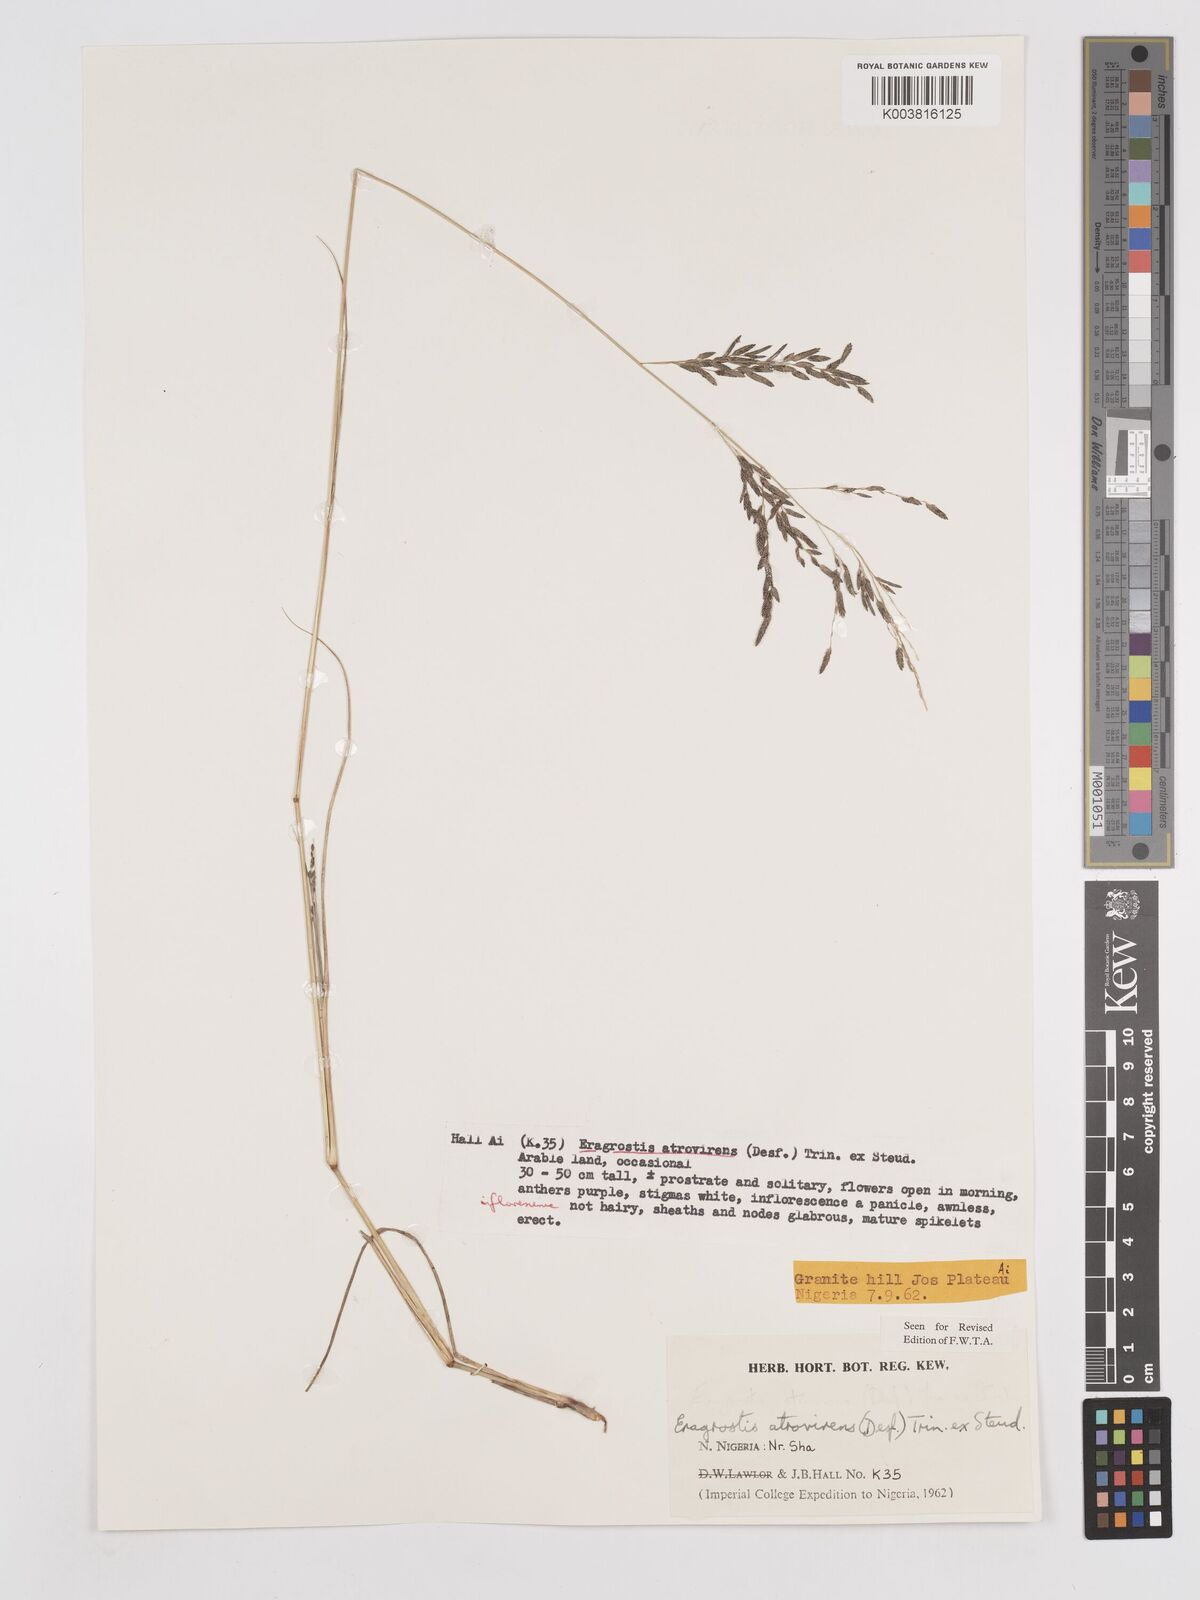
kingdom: Plantae
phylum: Tracheophyta
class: Liliopsida
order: Poales
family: Poaceae
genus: Eragrostis
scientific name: Eragrostis atrovirens
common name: Thalia lovegrass
